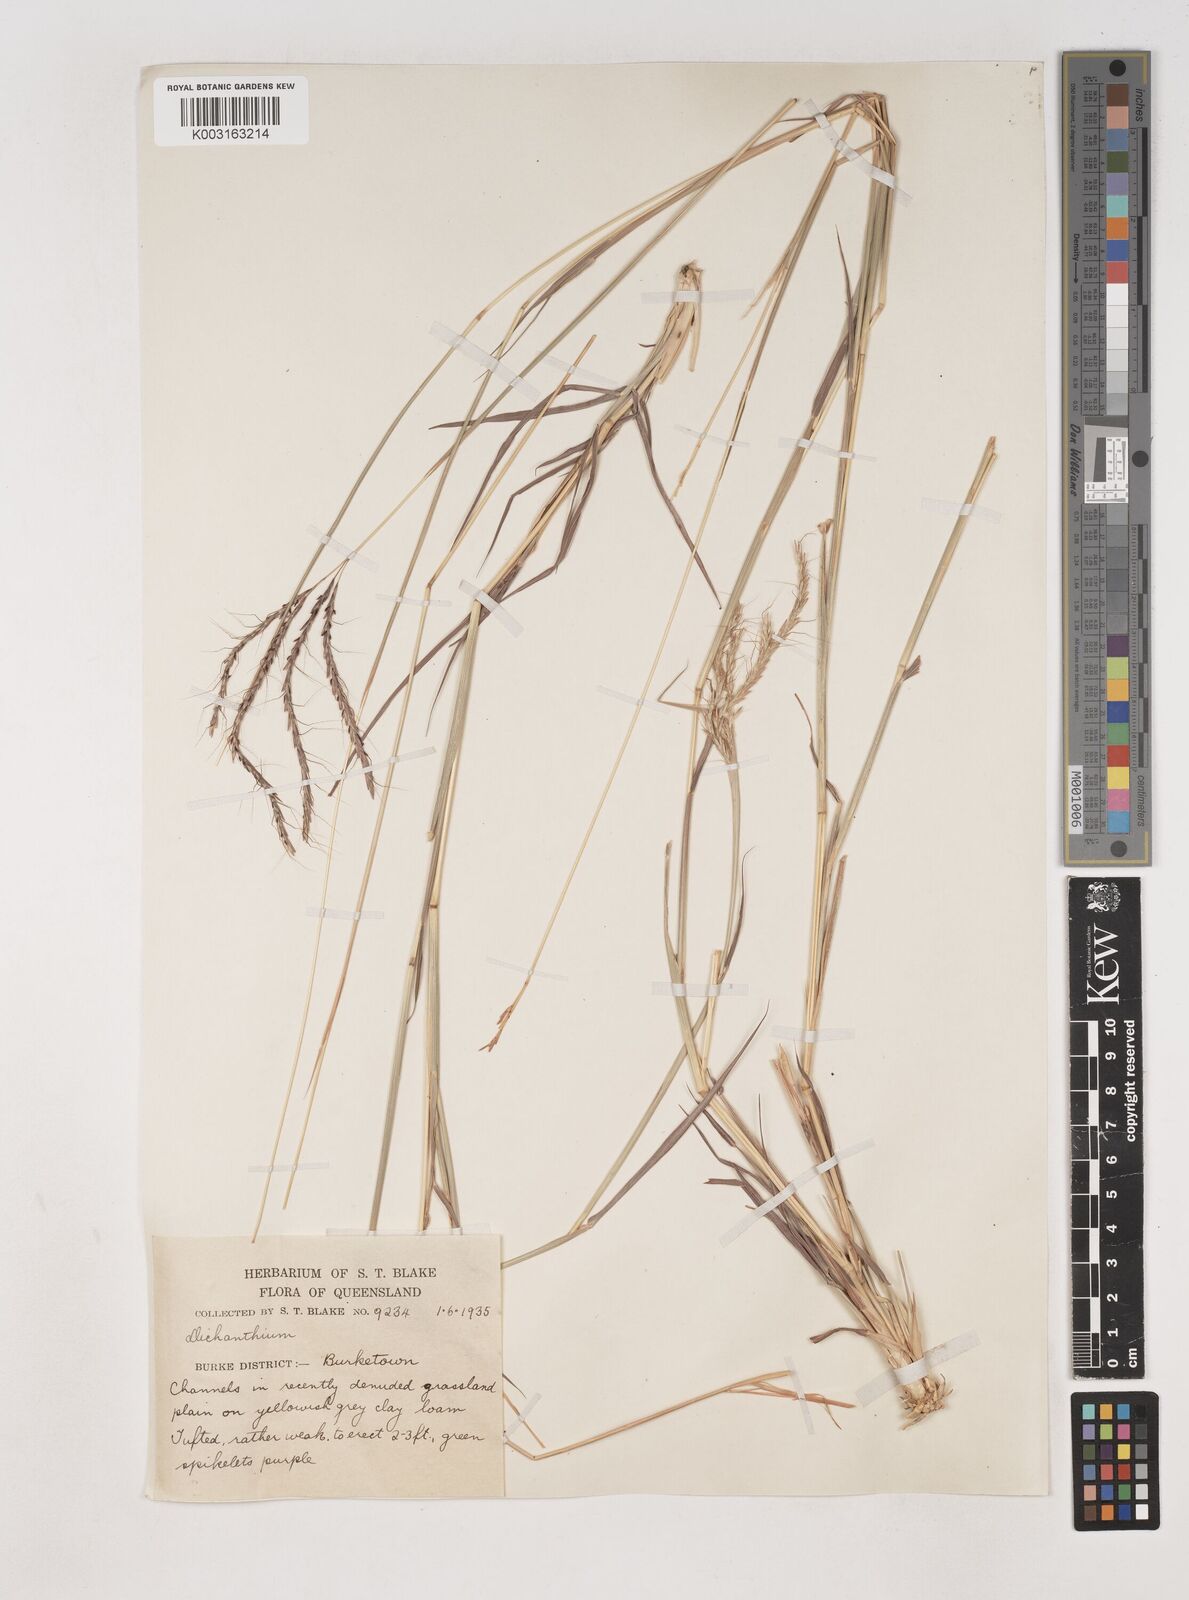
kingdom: Plantae
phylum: Tracheophyta
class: Liliopsida
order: Poales
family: Poaceae
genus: Dichanthium
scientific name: Dichanthium fecundum
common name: Bundle-bundle
